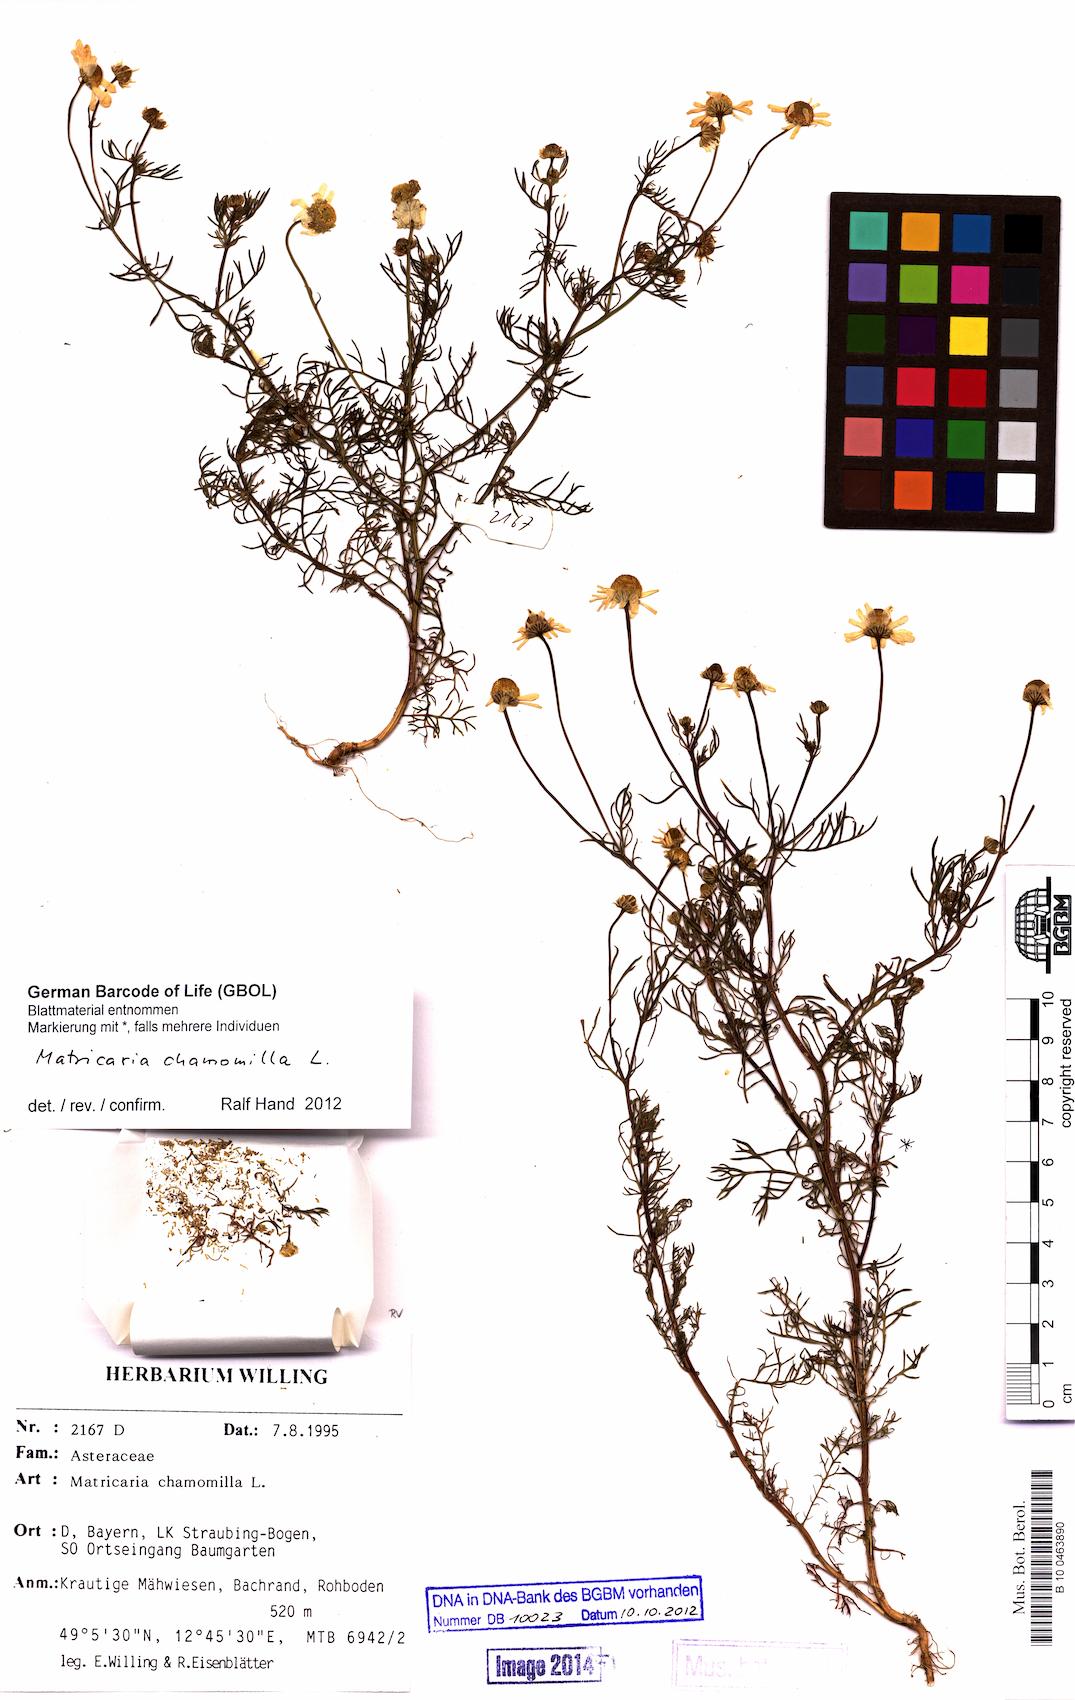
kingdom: Plantae
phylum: Tracheophyta
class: Magnoliopsida
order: Asterales
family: Asteraceae
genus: Matricaria
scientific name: Matricaria chamomilla
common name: Scented mayweed
